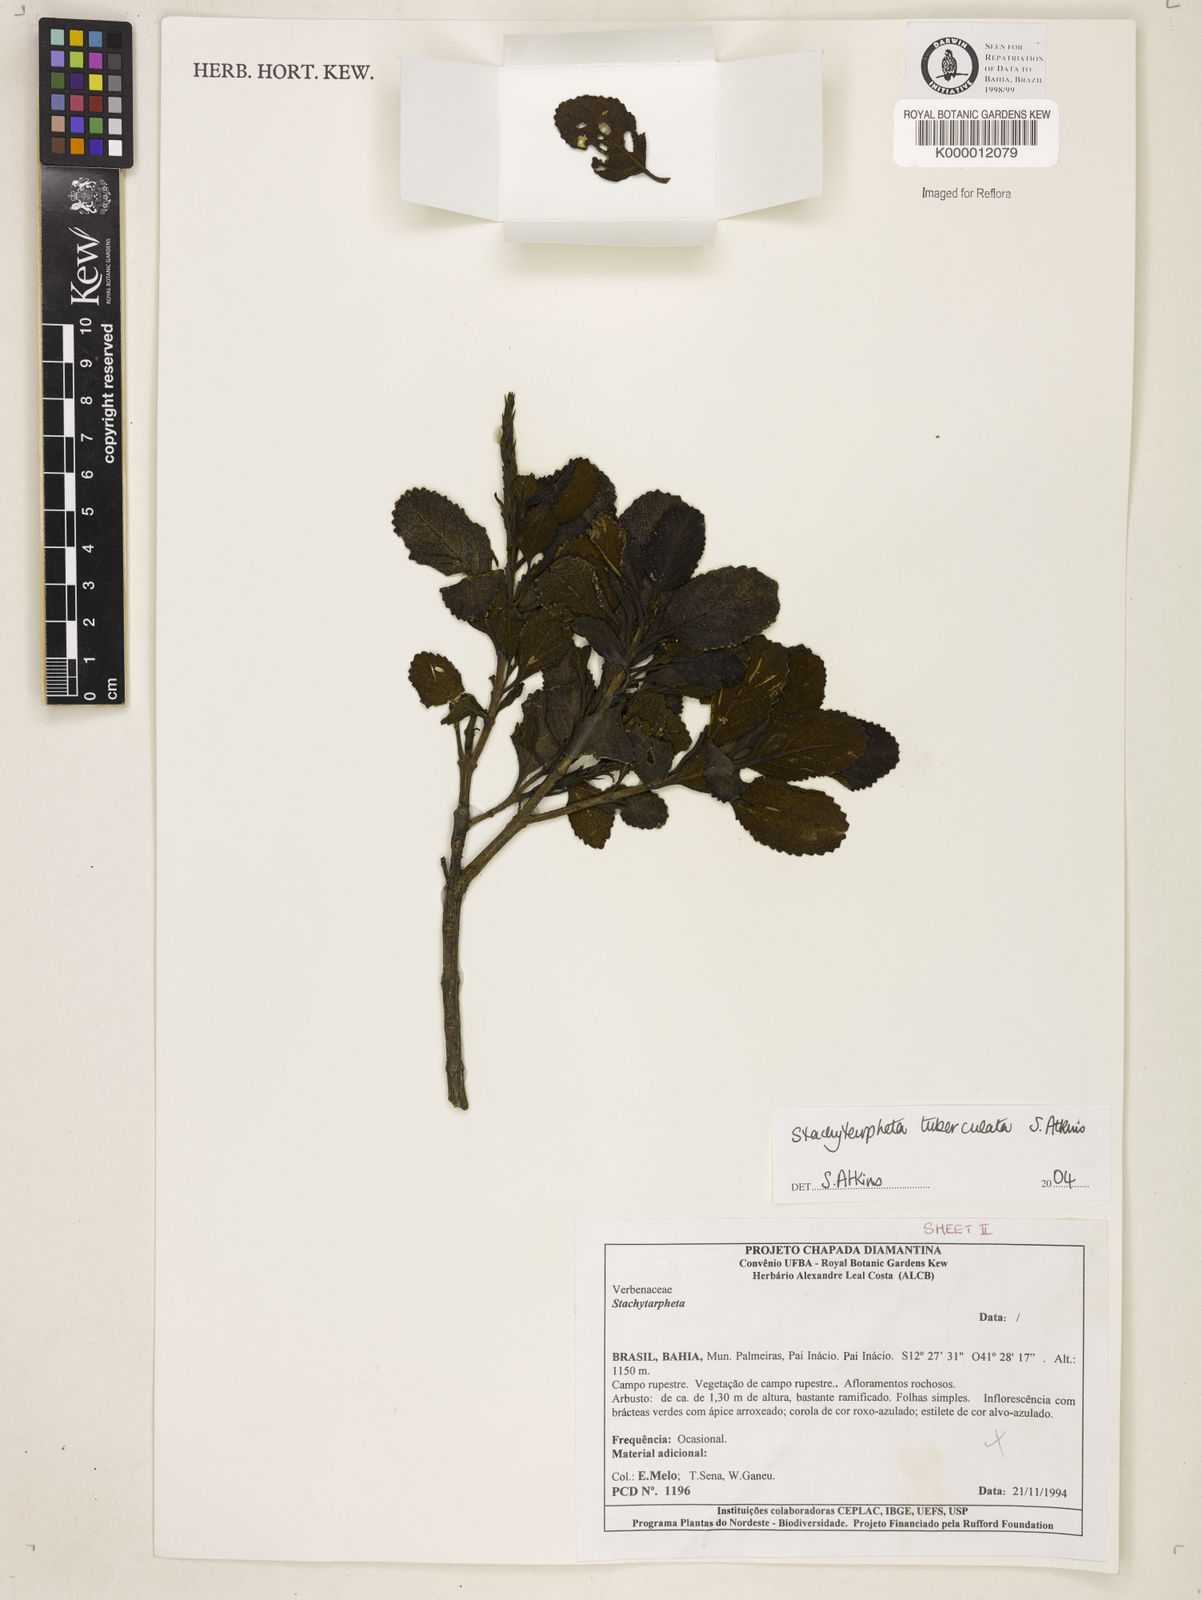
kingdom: Plantae
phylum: Tracheophyta
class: Magnoliopsida
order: Lamiales
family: Verbenaceae
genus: Stachytarpheta
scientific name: Stachytarpheta tuberculata
